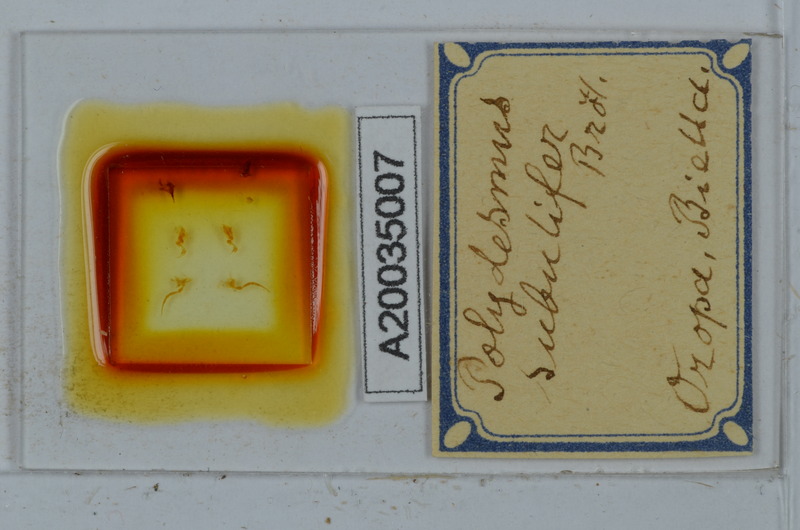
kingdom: Animalia
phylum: Arthropoda
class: Diplopoda
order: Polydesmida
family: Polydesmidae
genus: Polydesmus
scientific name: Polydesmus subulifer
